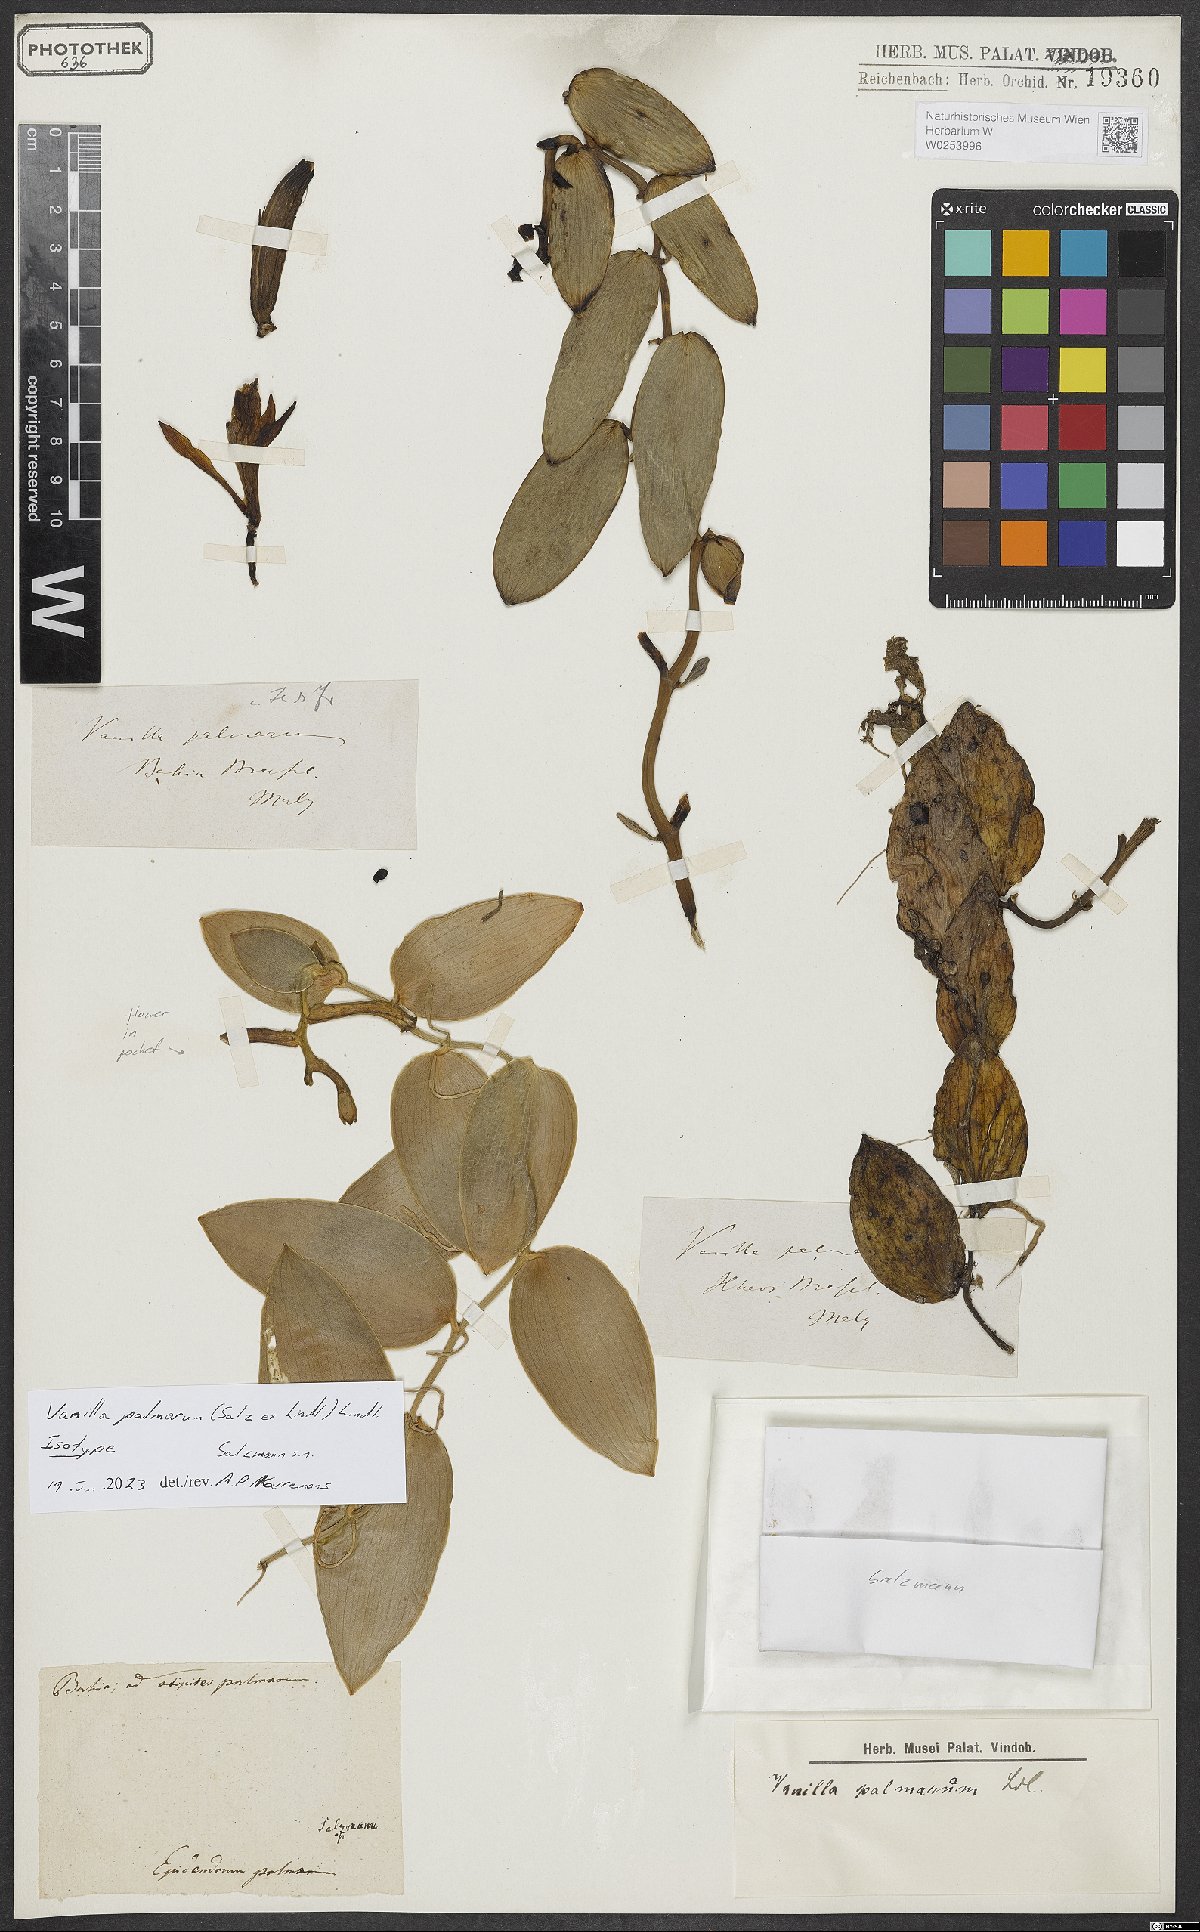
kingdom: Plantae
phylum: Tracheophyta
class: Liliopsida
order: Asparagales
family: Orchidaceae
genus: Vanilla
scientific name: Vanilla
